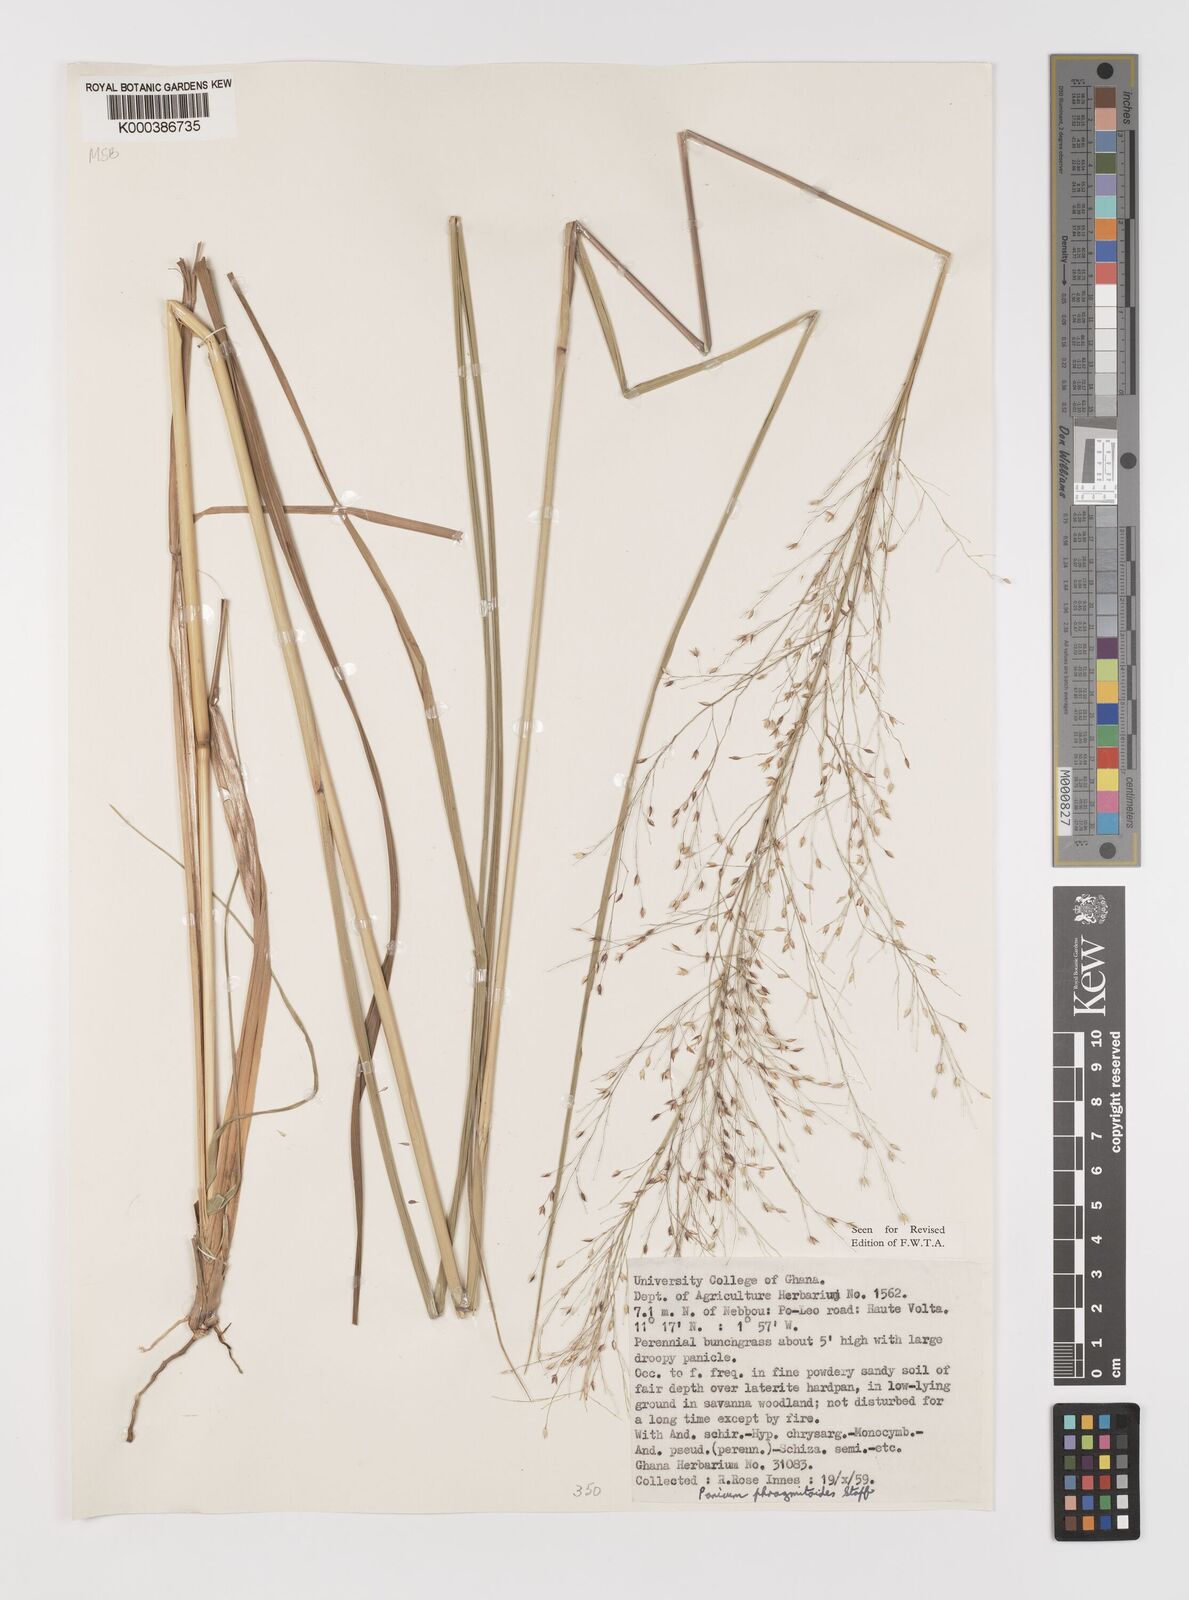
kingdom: Plantae
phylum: Tracheophyta
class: Liliopsida
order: Poales
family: Poaceae
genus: Panicum
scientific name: Panicum phragmitoides
